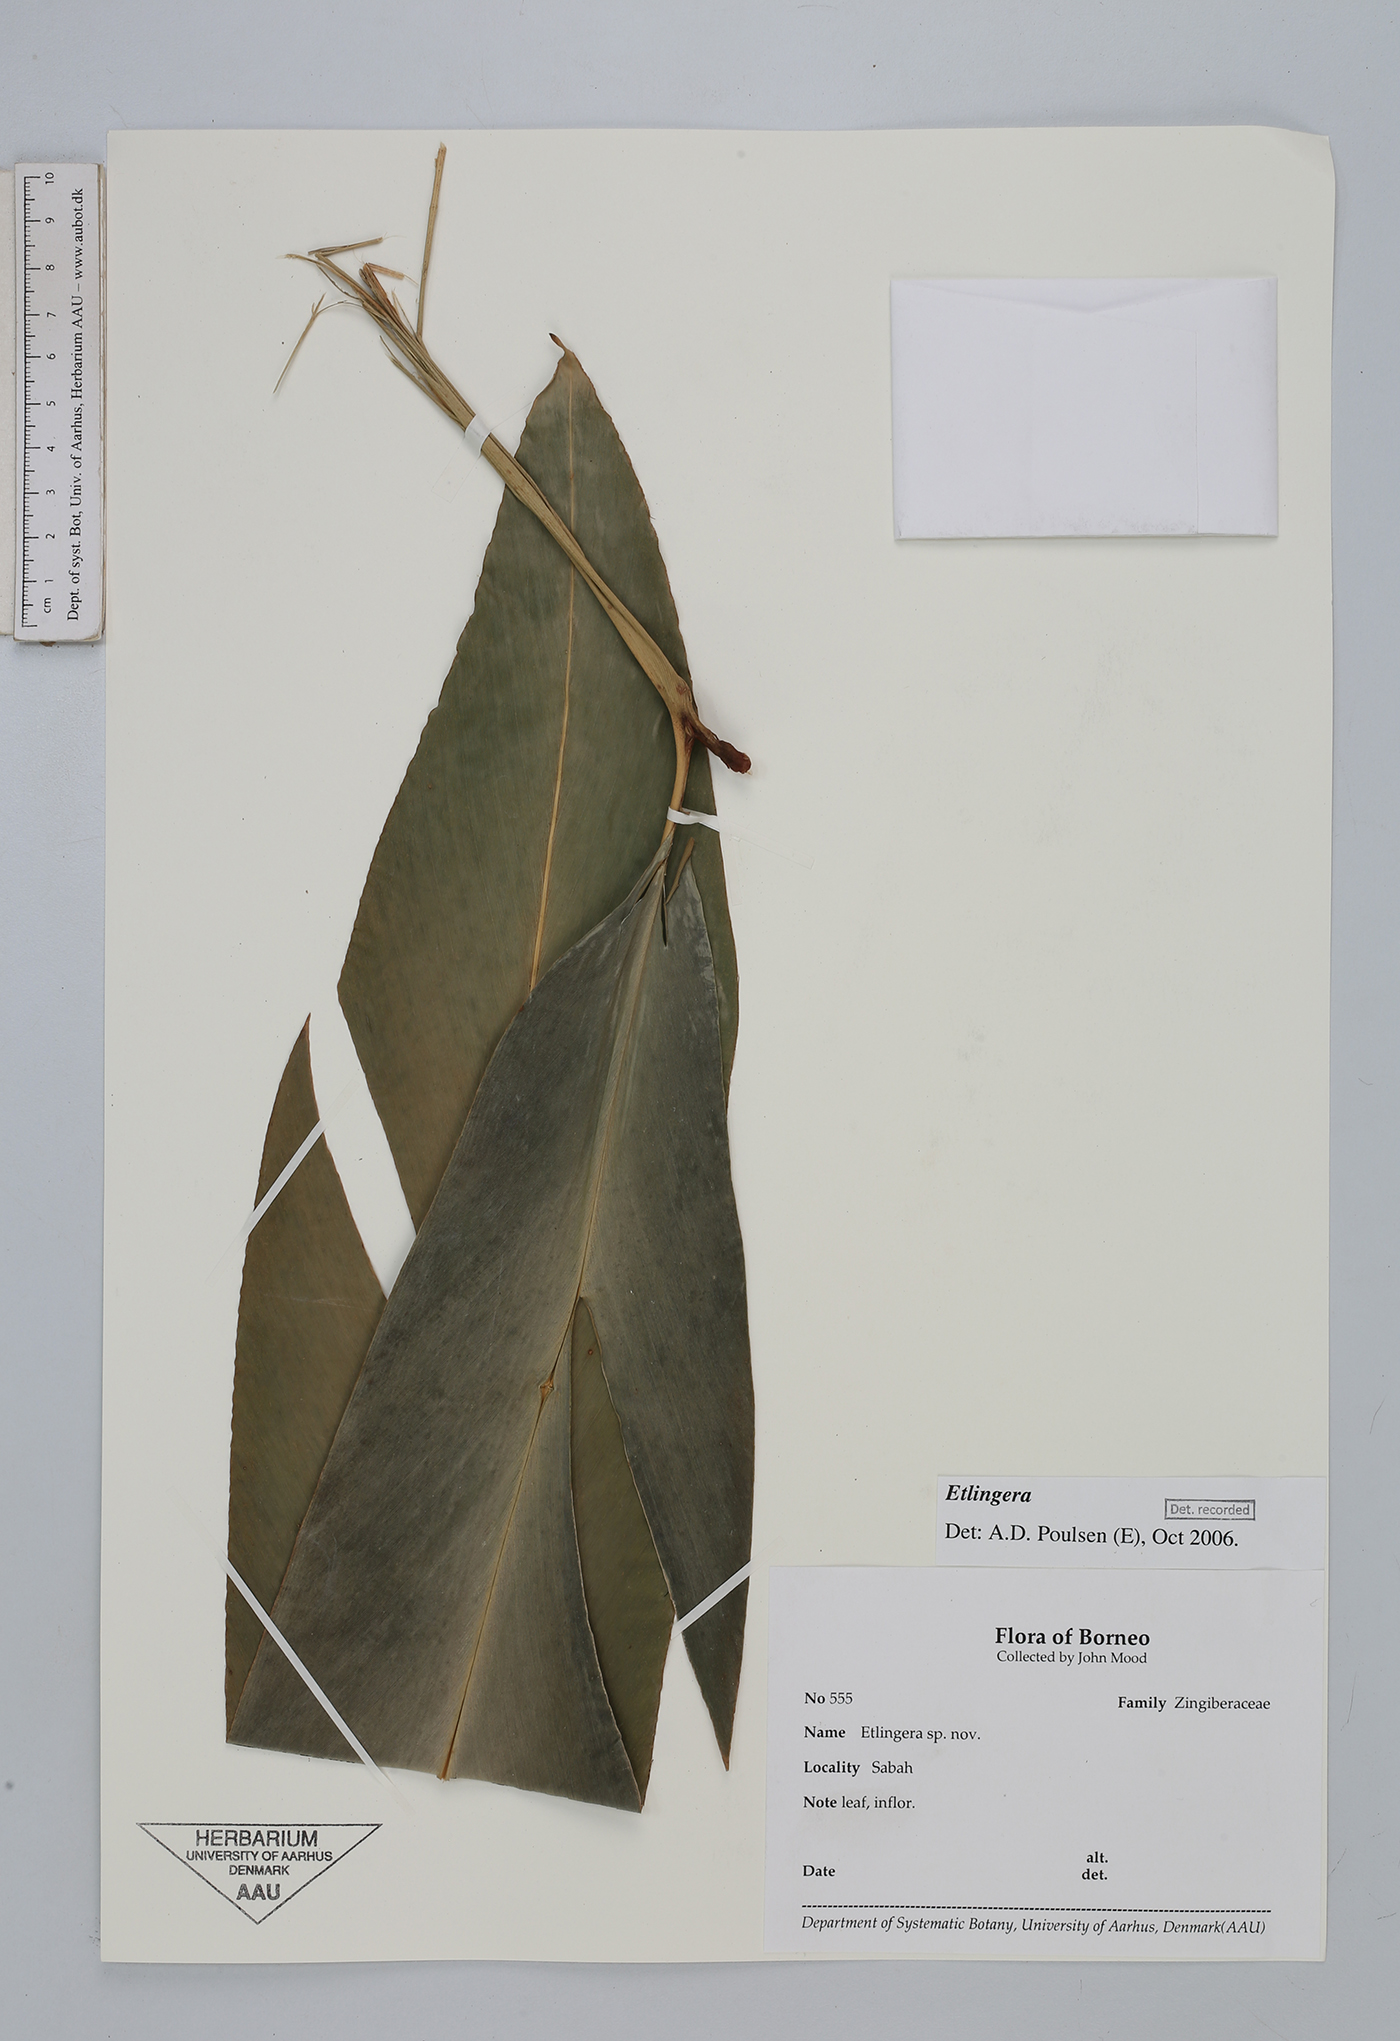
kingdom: Plantae
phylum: Tracheophyta
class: Liliopsida
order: Zingiberales
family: Zingiberaceae
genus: Etlingera
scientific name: Etlingera
